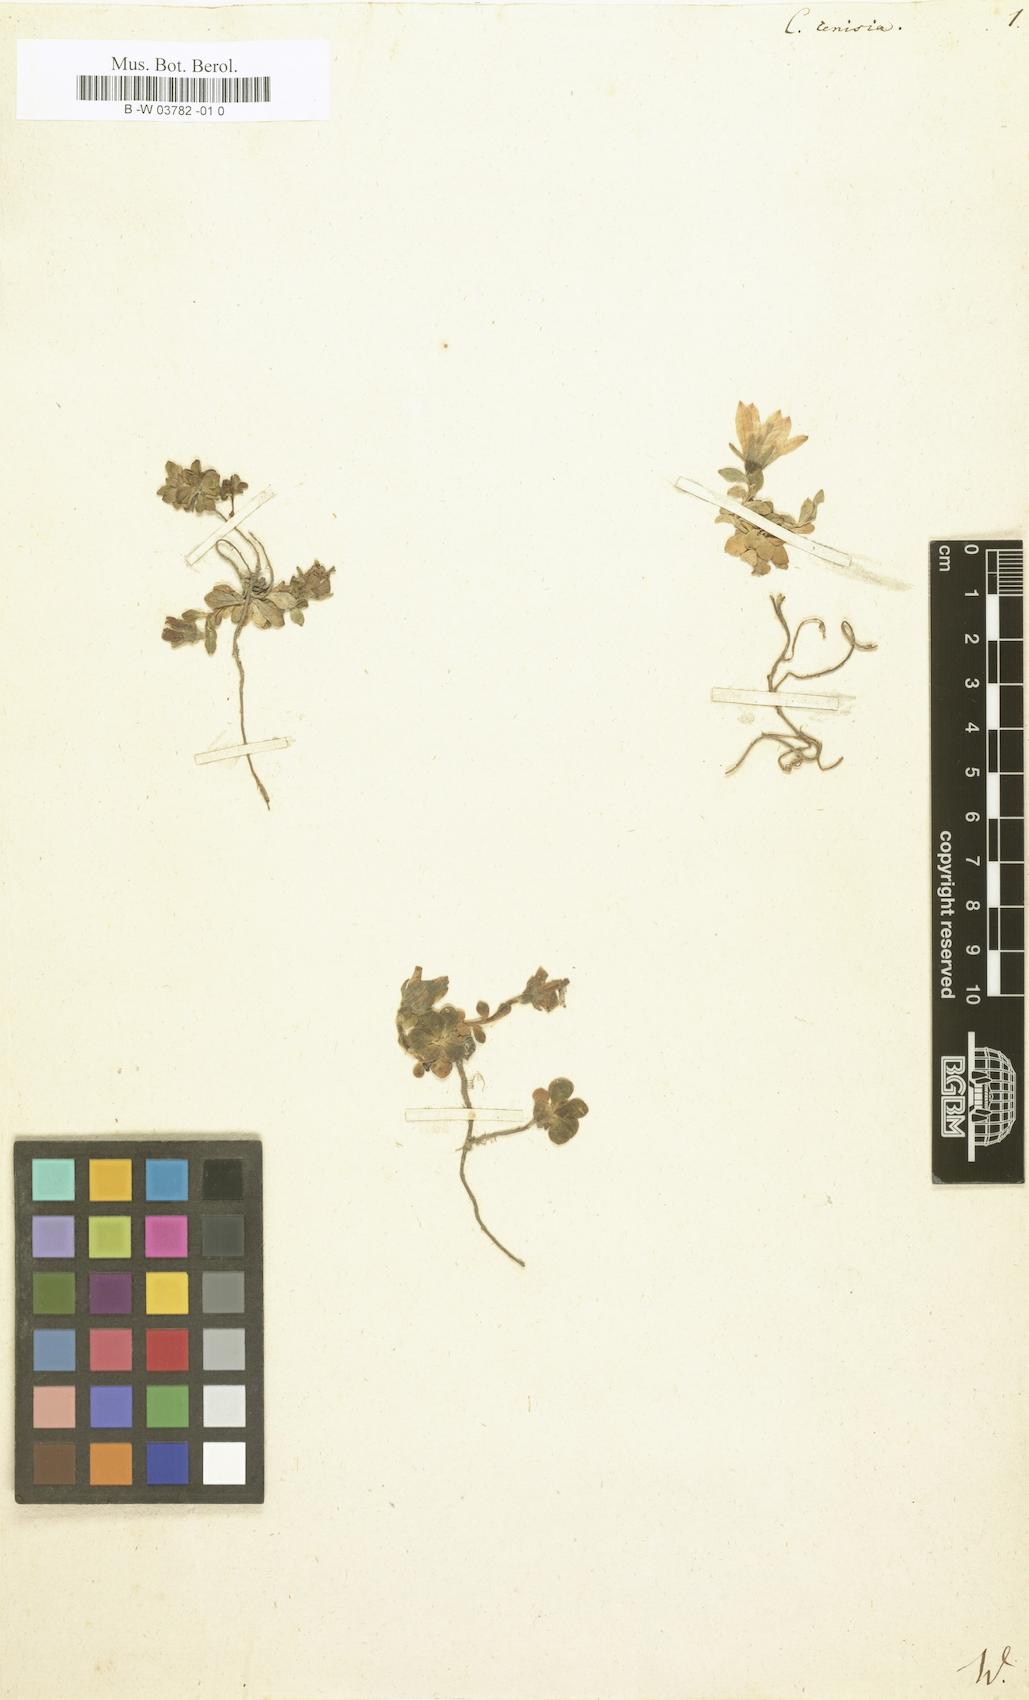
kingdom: Plantae
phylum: Tracheophyta
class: Magnoliopsida
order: Asterales
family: Campanulaceae
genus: Campanula
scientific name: Campanula cenisia
